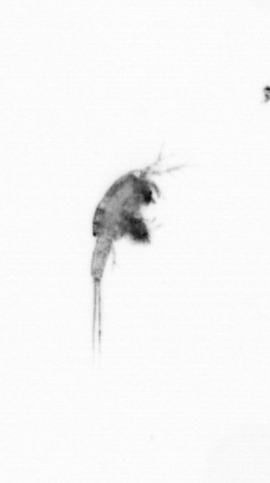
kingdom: Animalia
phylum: Arthropoda
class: Copepoda
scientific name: Copepoda
